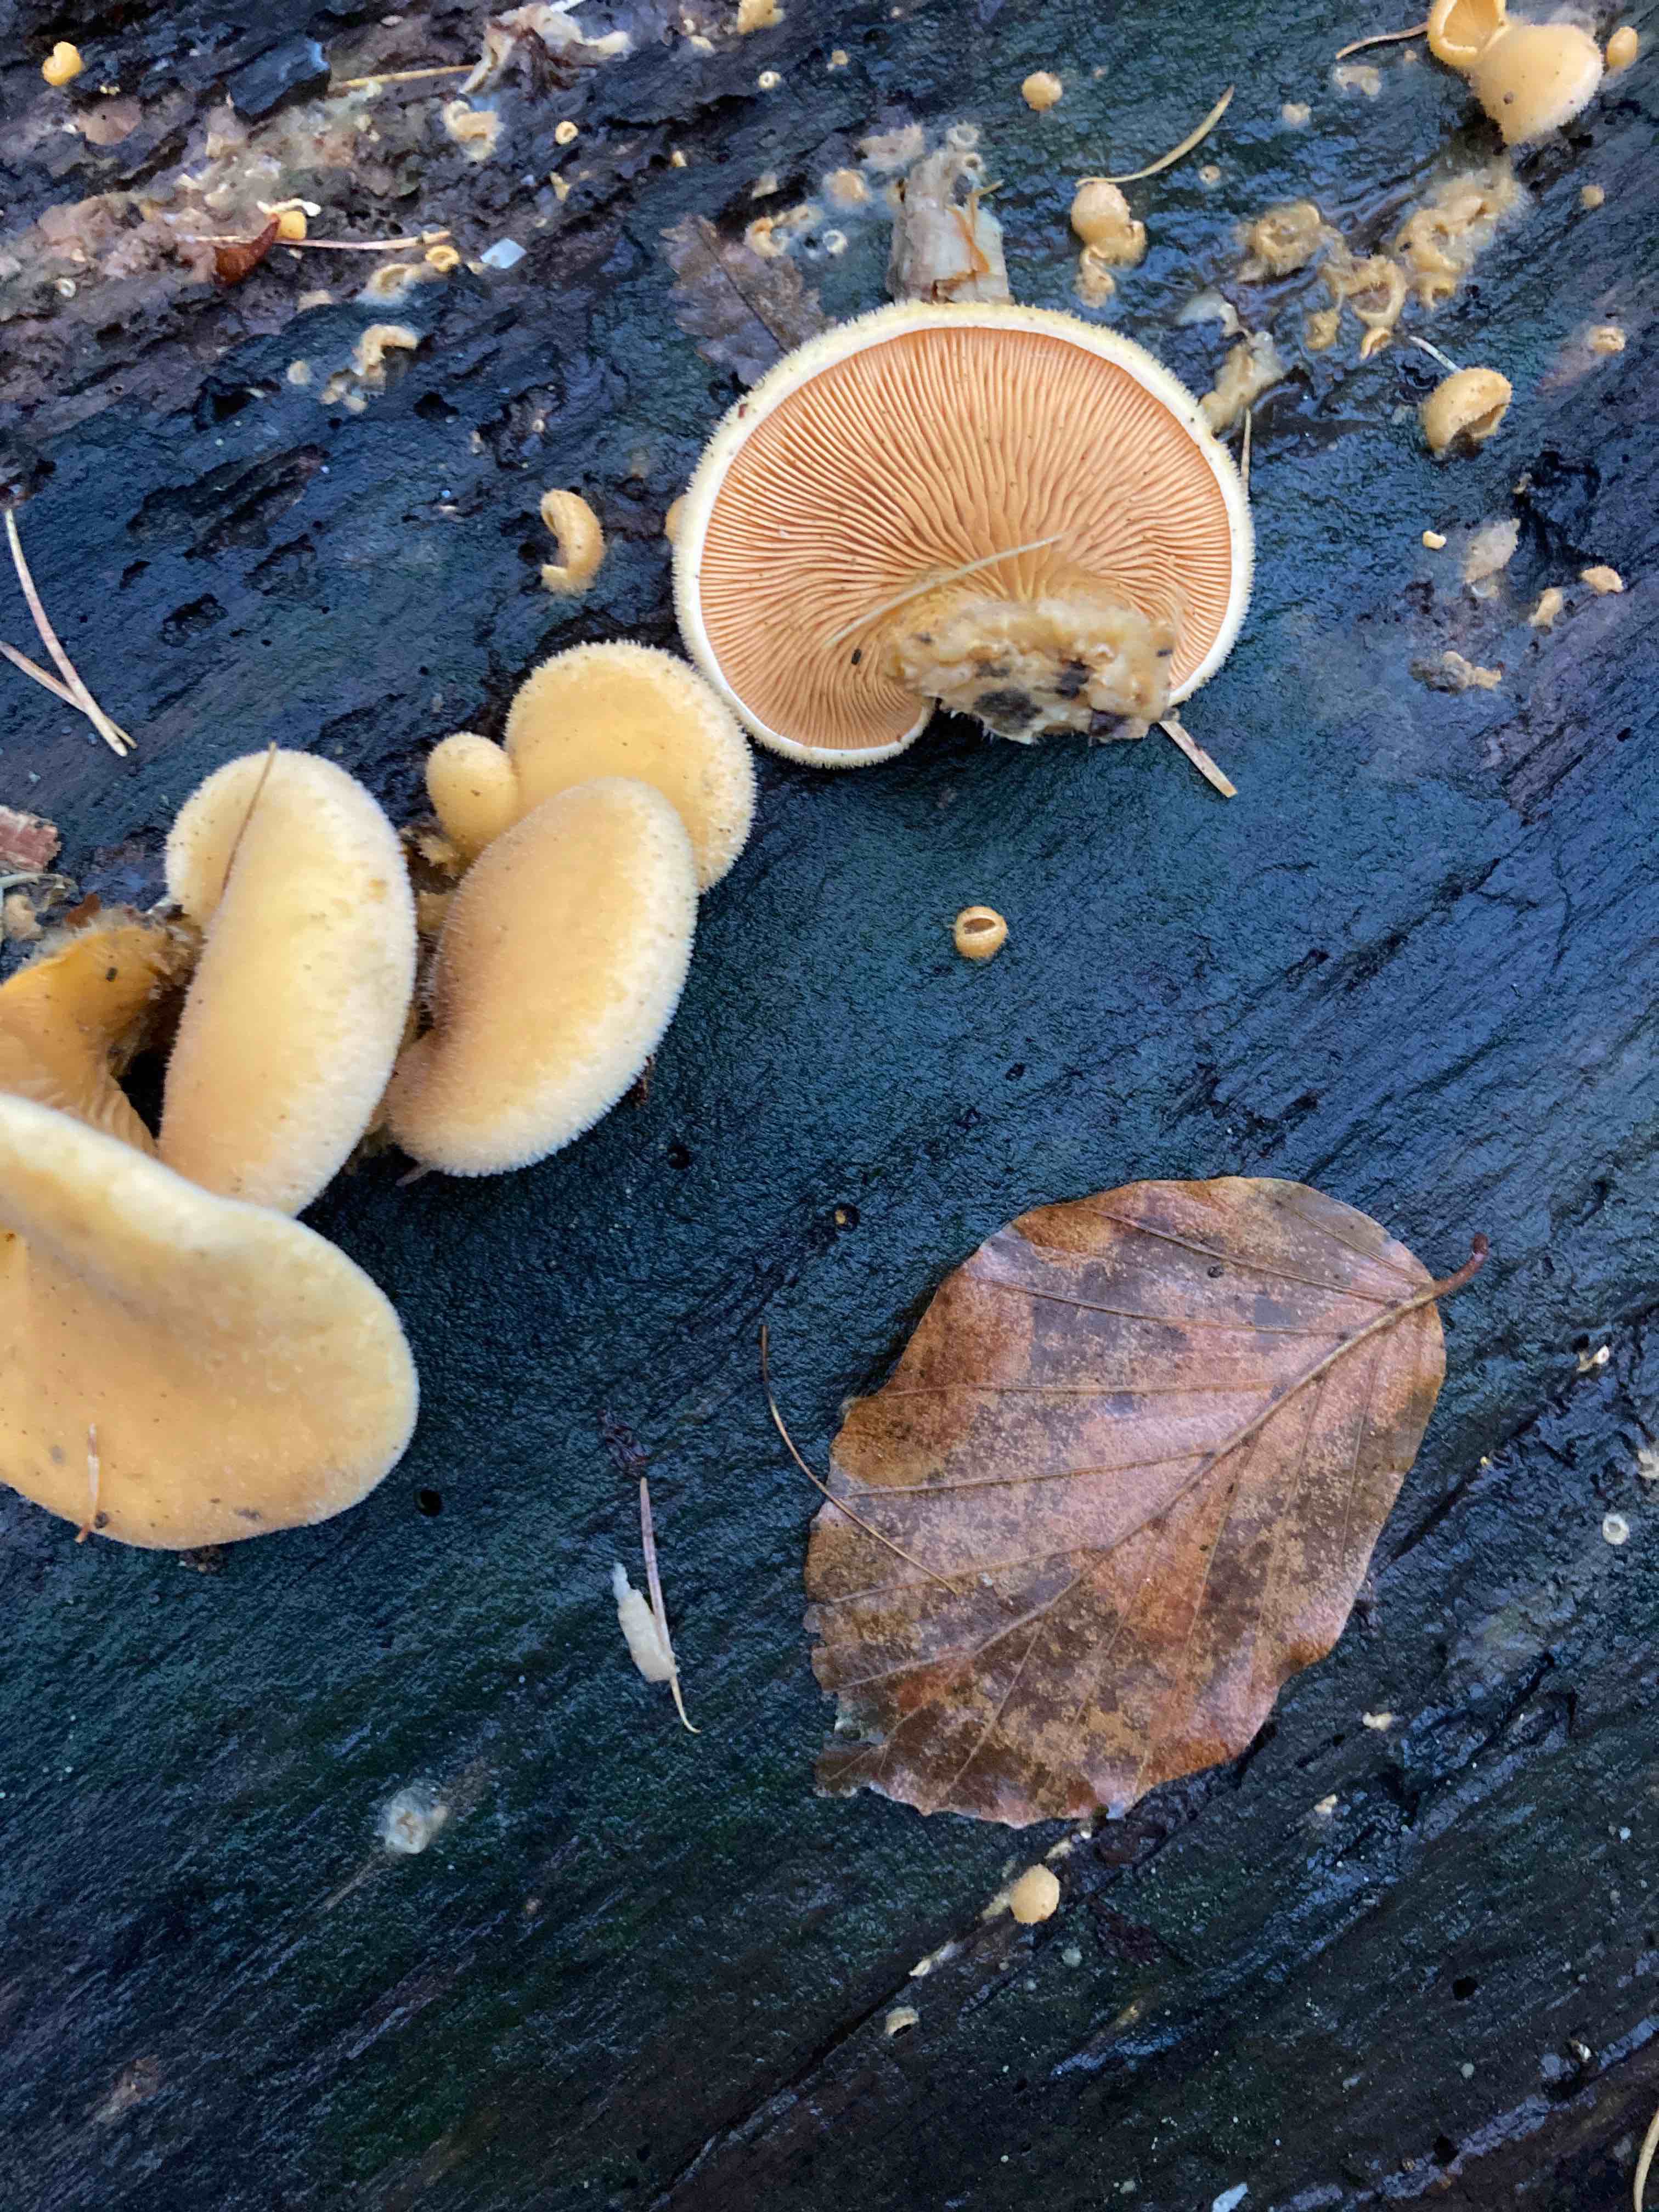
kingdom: Fungi
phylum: Basidiomycota
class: Agaricomycetes
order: Agaricales
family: Phyllotopsidaceae
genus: Phyllotopsis
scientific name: Phyllotopsis nidulans
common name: okkerblad
